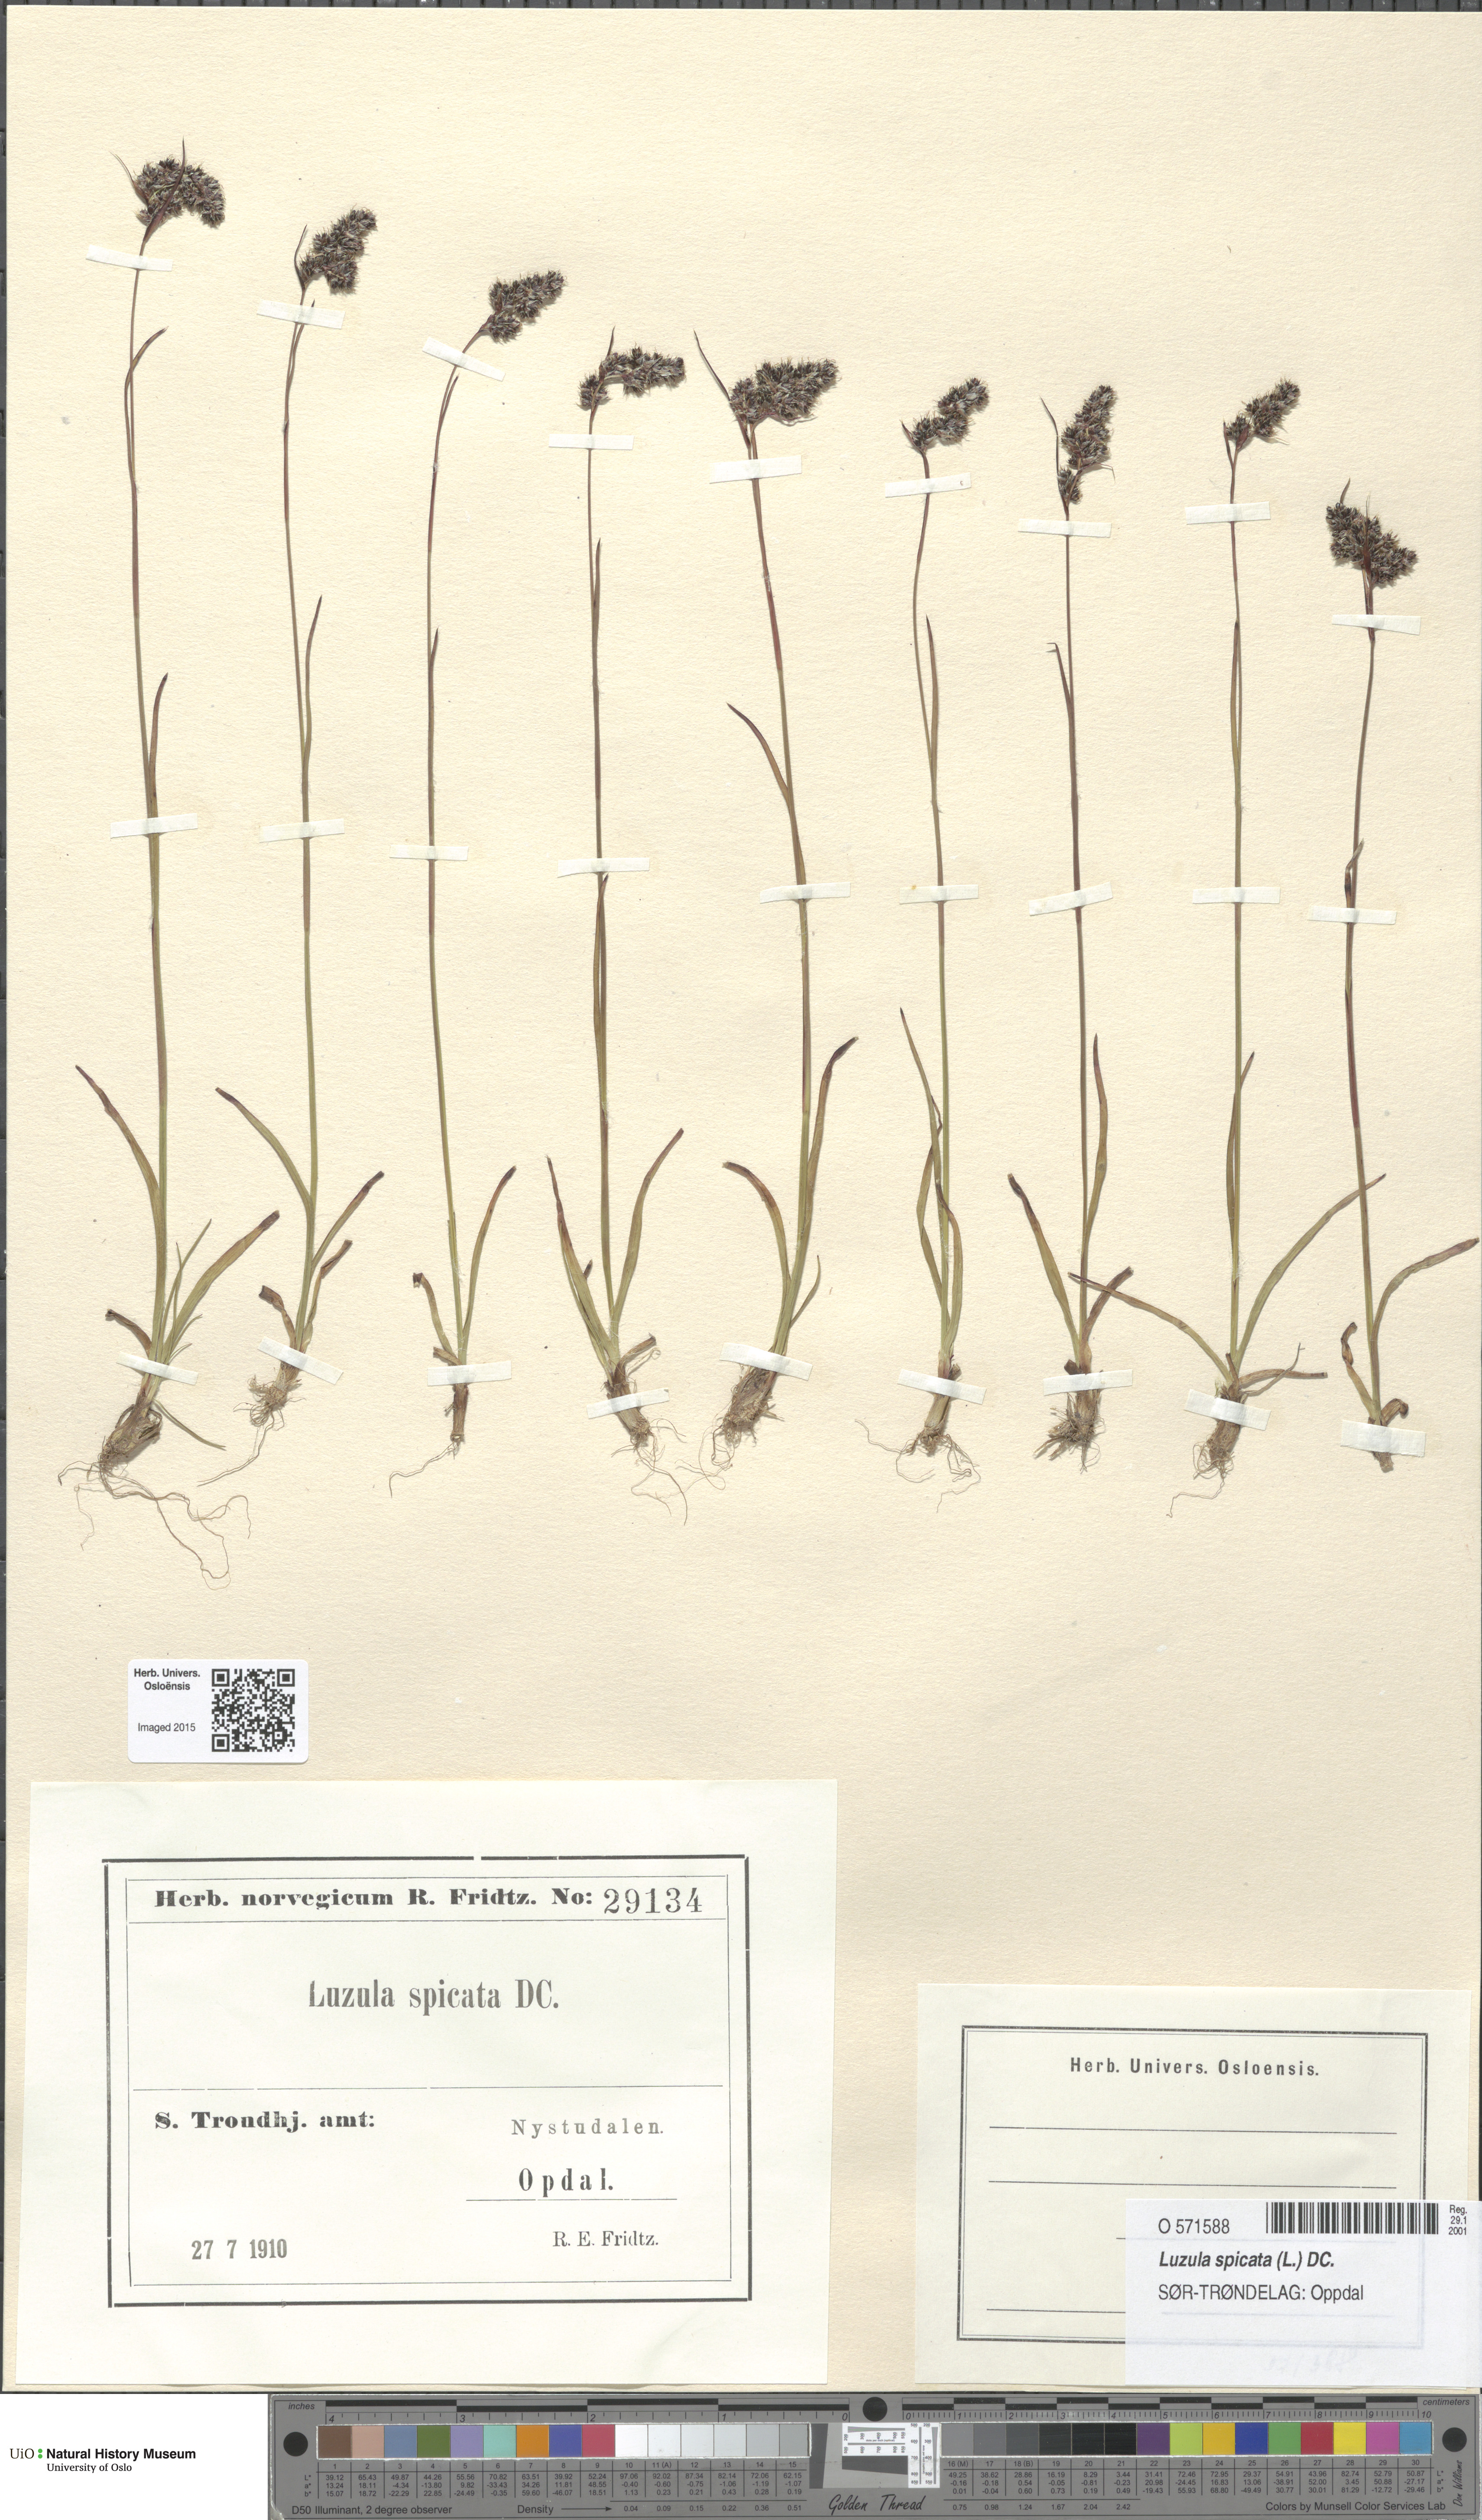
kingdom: Plantae
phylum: Tracheophyta
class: Liliopsida
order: Poales
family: Juncaceae
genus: Luzula
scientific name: Luzula spicata
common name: Spiked wood-rush
